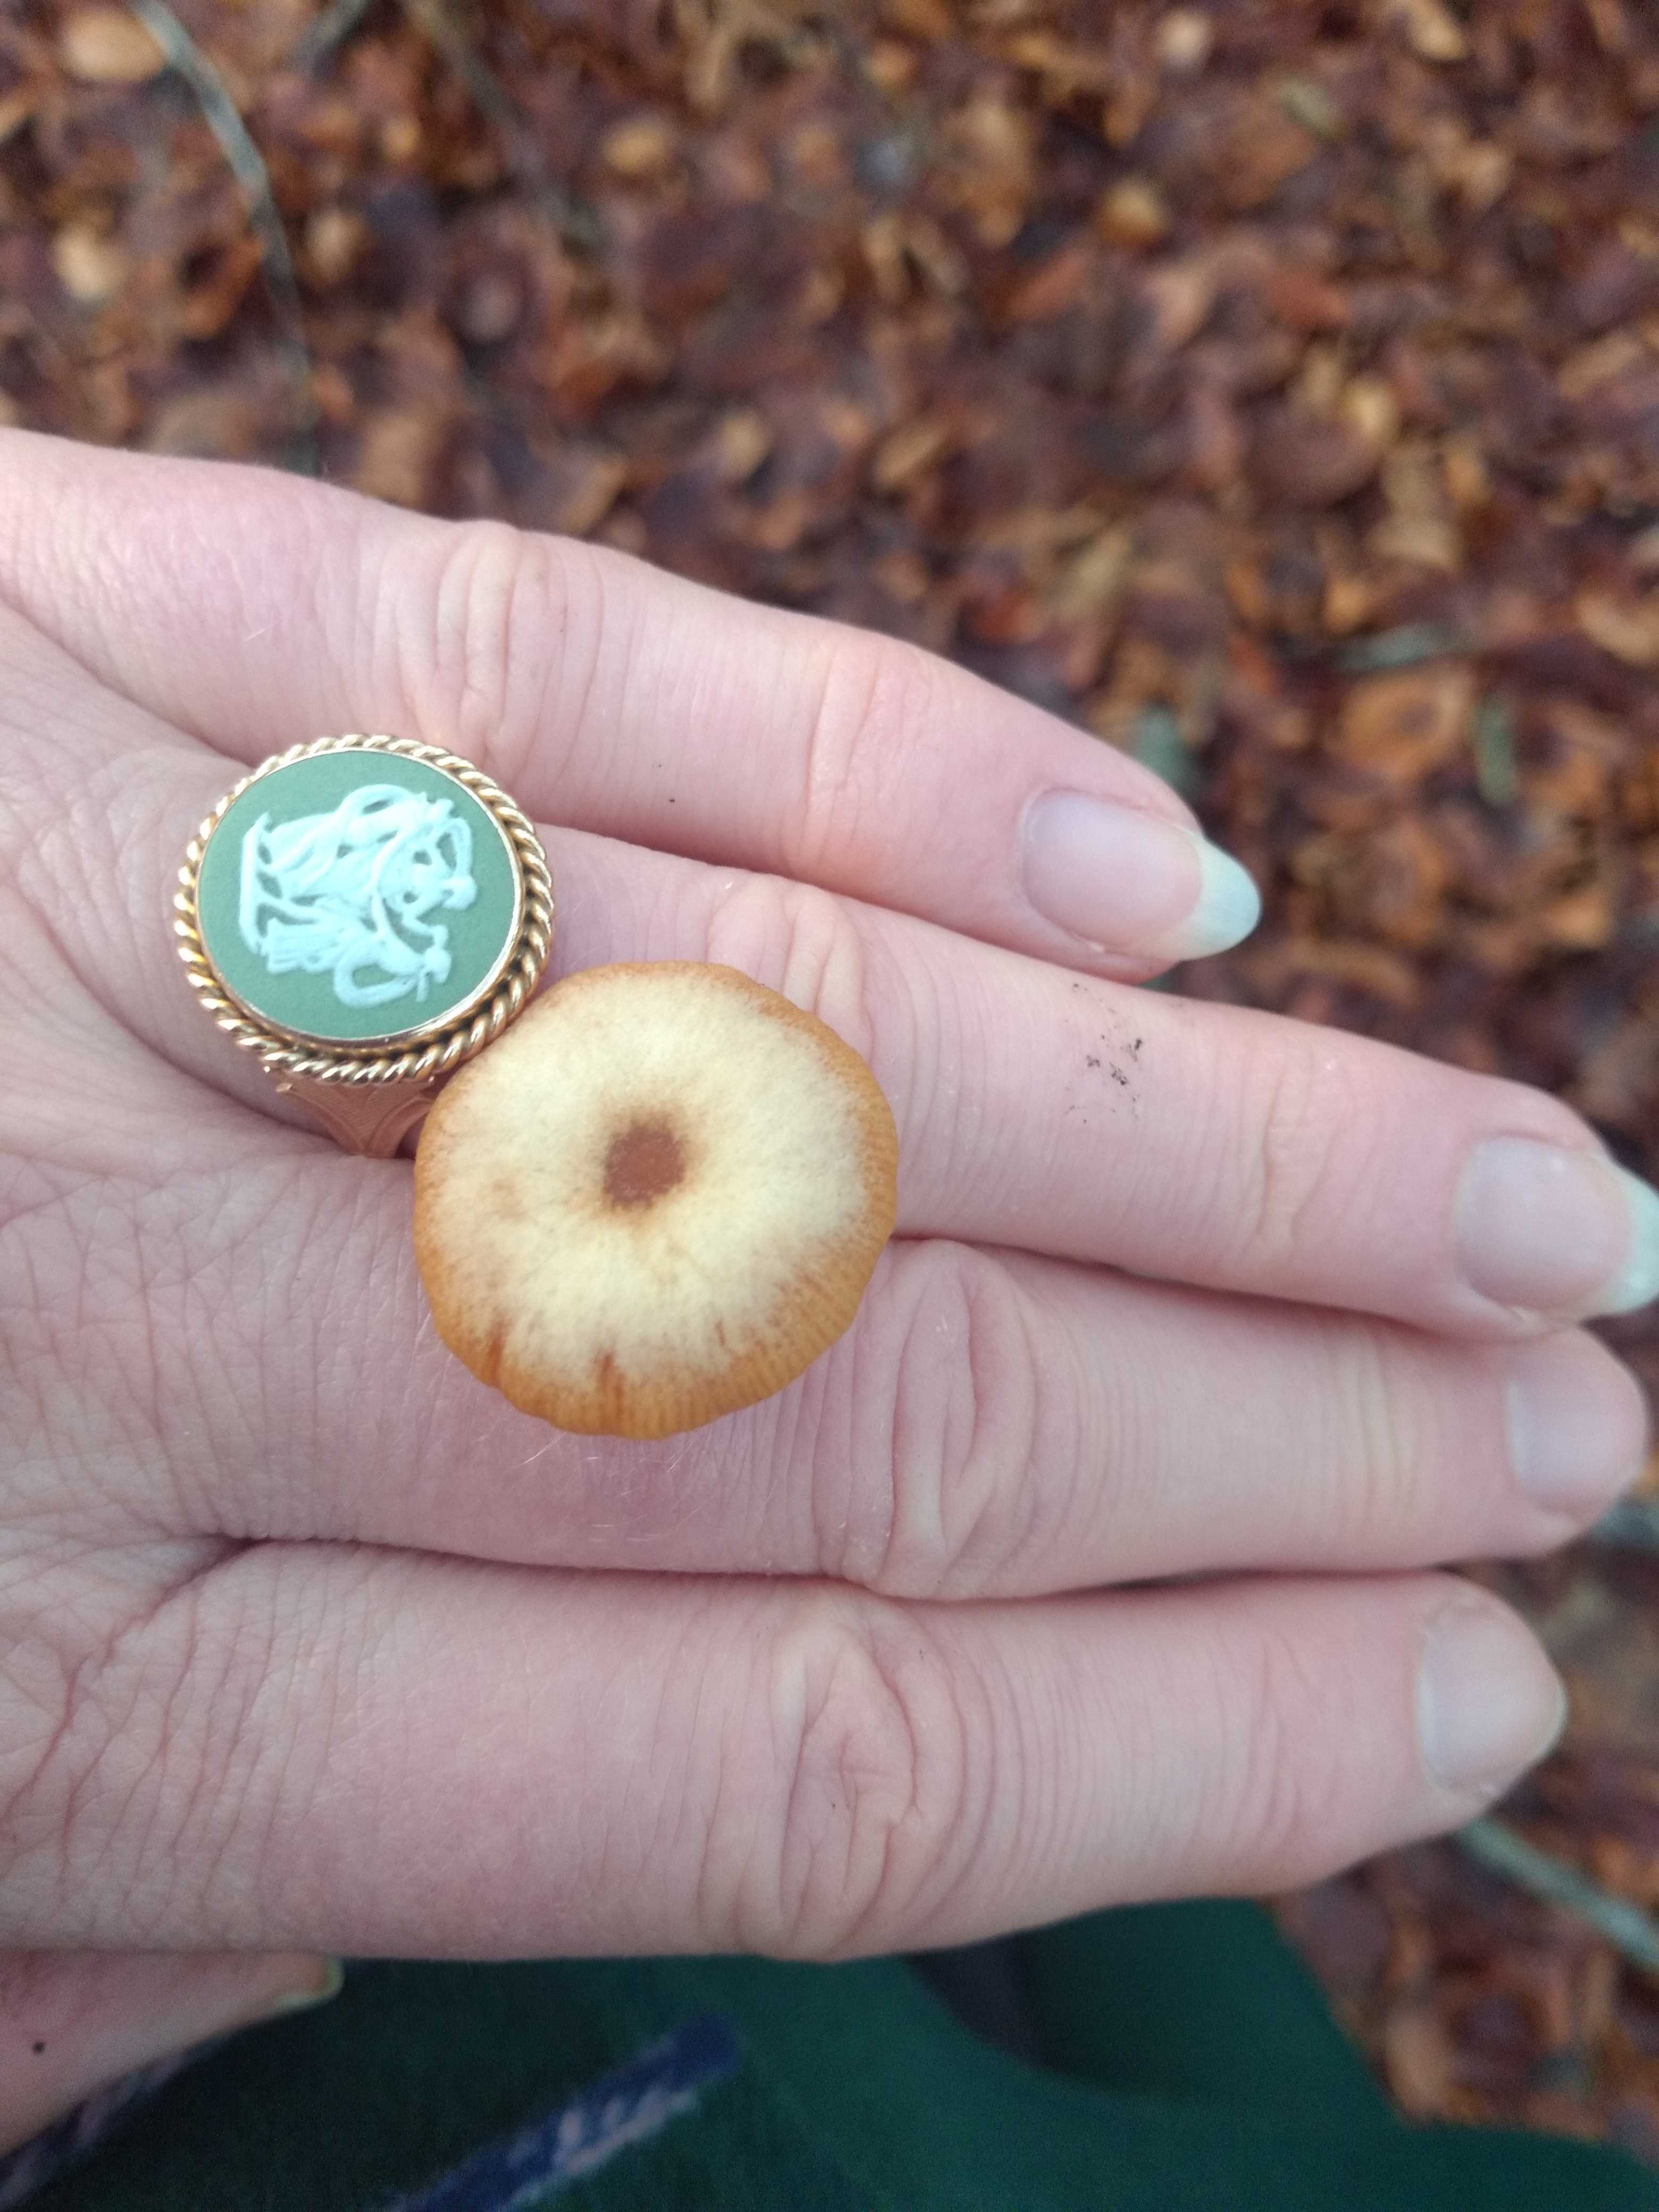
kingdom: Fungi
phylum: Basidiomycota
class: Agaricomycetes
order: Agaricales
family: Tubariaceae
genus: Tubaria
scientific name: Tubaria furfuracea
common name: kliddet fnughat
